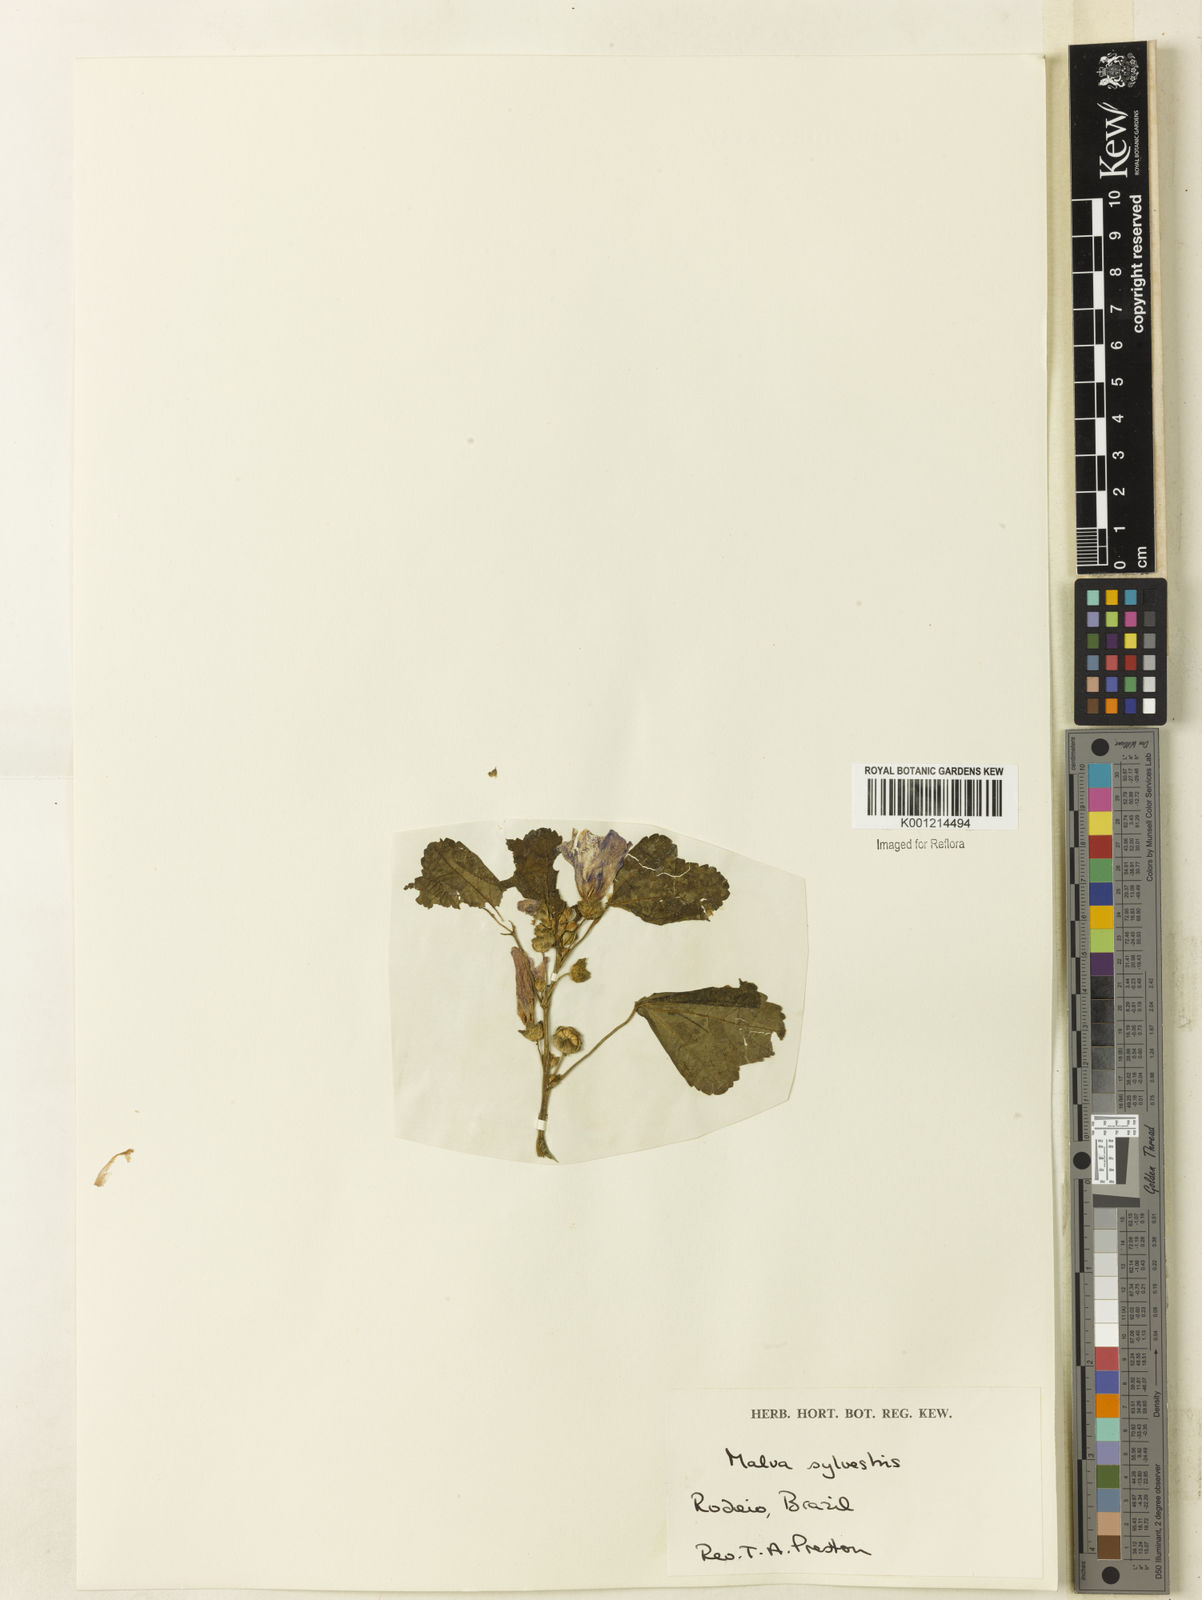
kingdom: Plantae
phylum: Tracheophyta
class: Magnoliopsida
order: Malvales
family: Malvaceae
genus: Malva
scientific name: Malva sylvestris
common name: Common mallow
